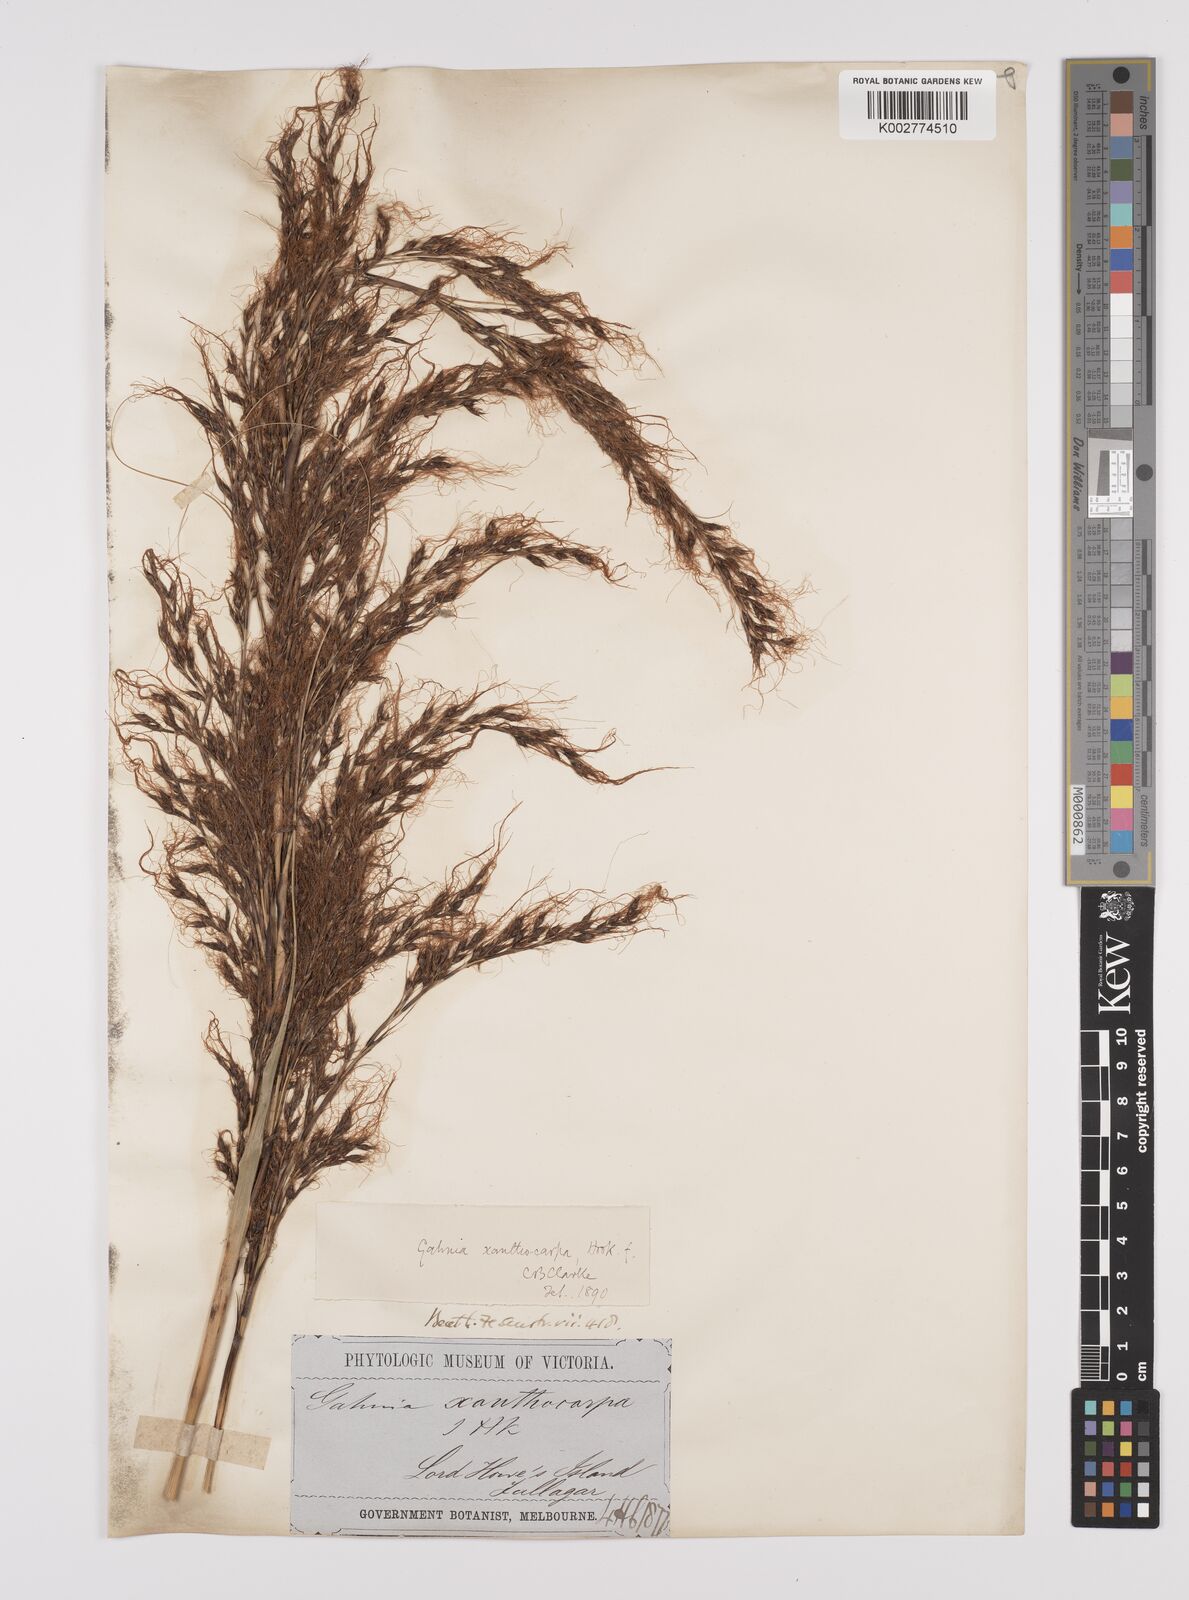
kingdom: Plantae
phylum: Tracheophyta
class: Liliopsida
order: Poales
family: Cyperaceae
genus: Gahnia
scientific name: Gahnia xanthocarpa
